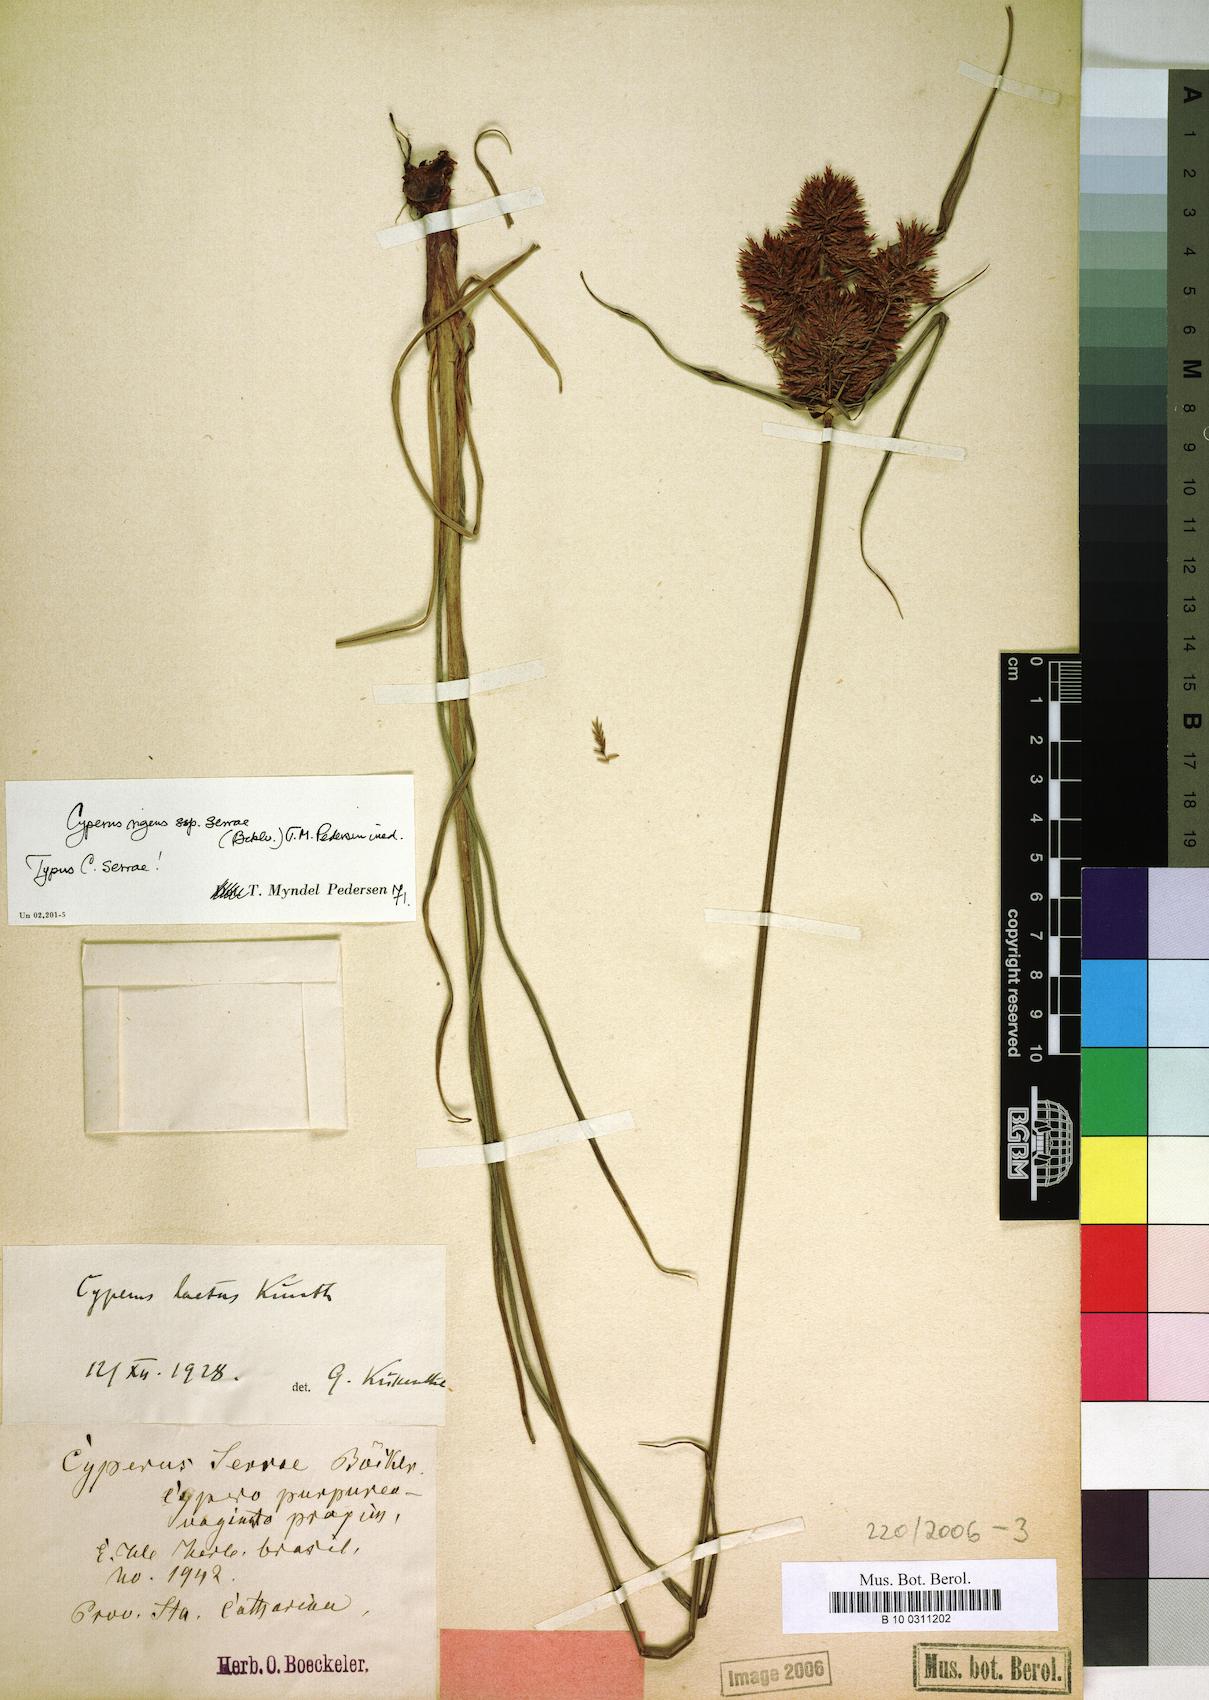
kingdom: Plantae
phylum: Tracheophyta
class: Liliopsida
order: Poales
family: Cyperaceae
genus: Cyperus
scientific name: Cyperus rigens
